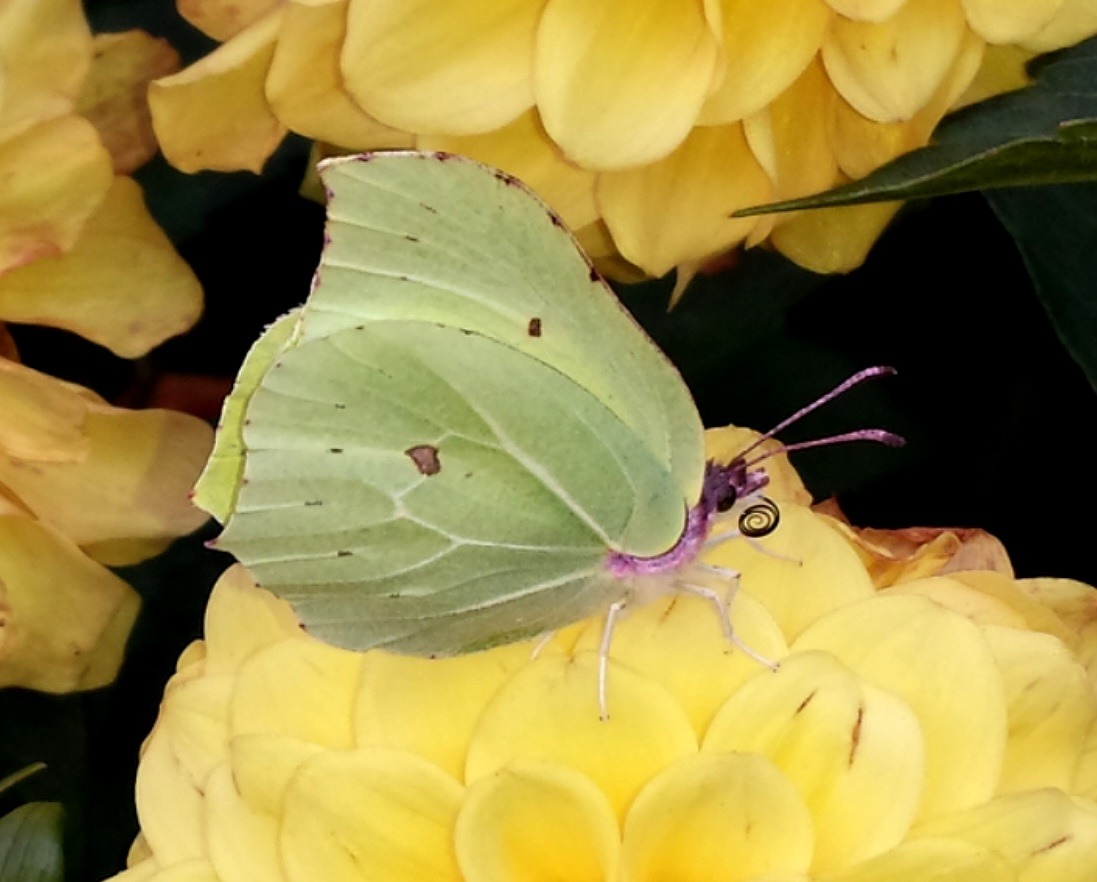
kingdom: Animalia
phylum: Arthropoda
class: Insecta
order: Lepidoptera
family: Pieridae
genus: Gonepteryx
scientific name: Gonepteryx rhamni
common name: Citronsommerfugl
